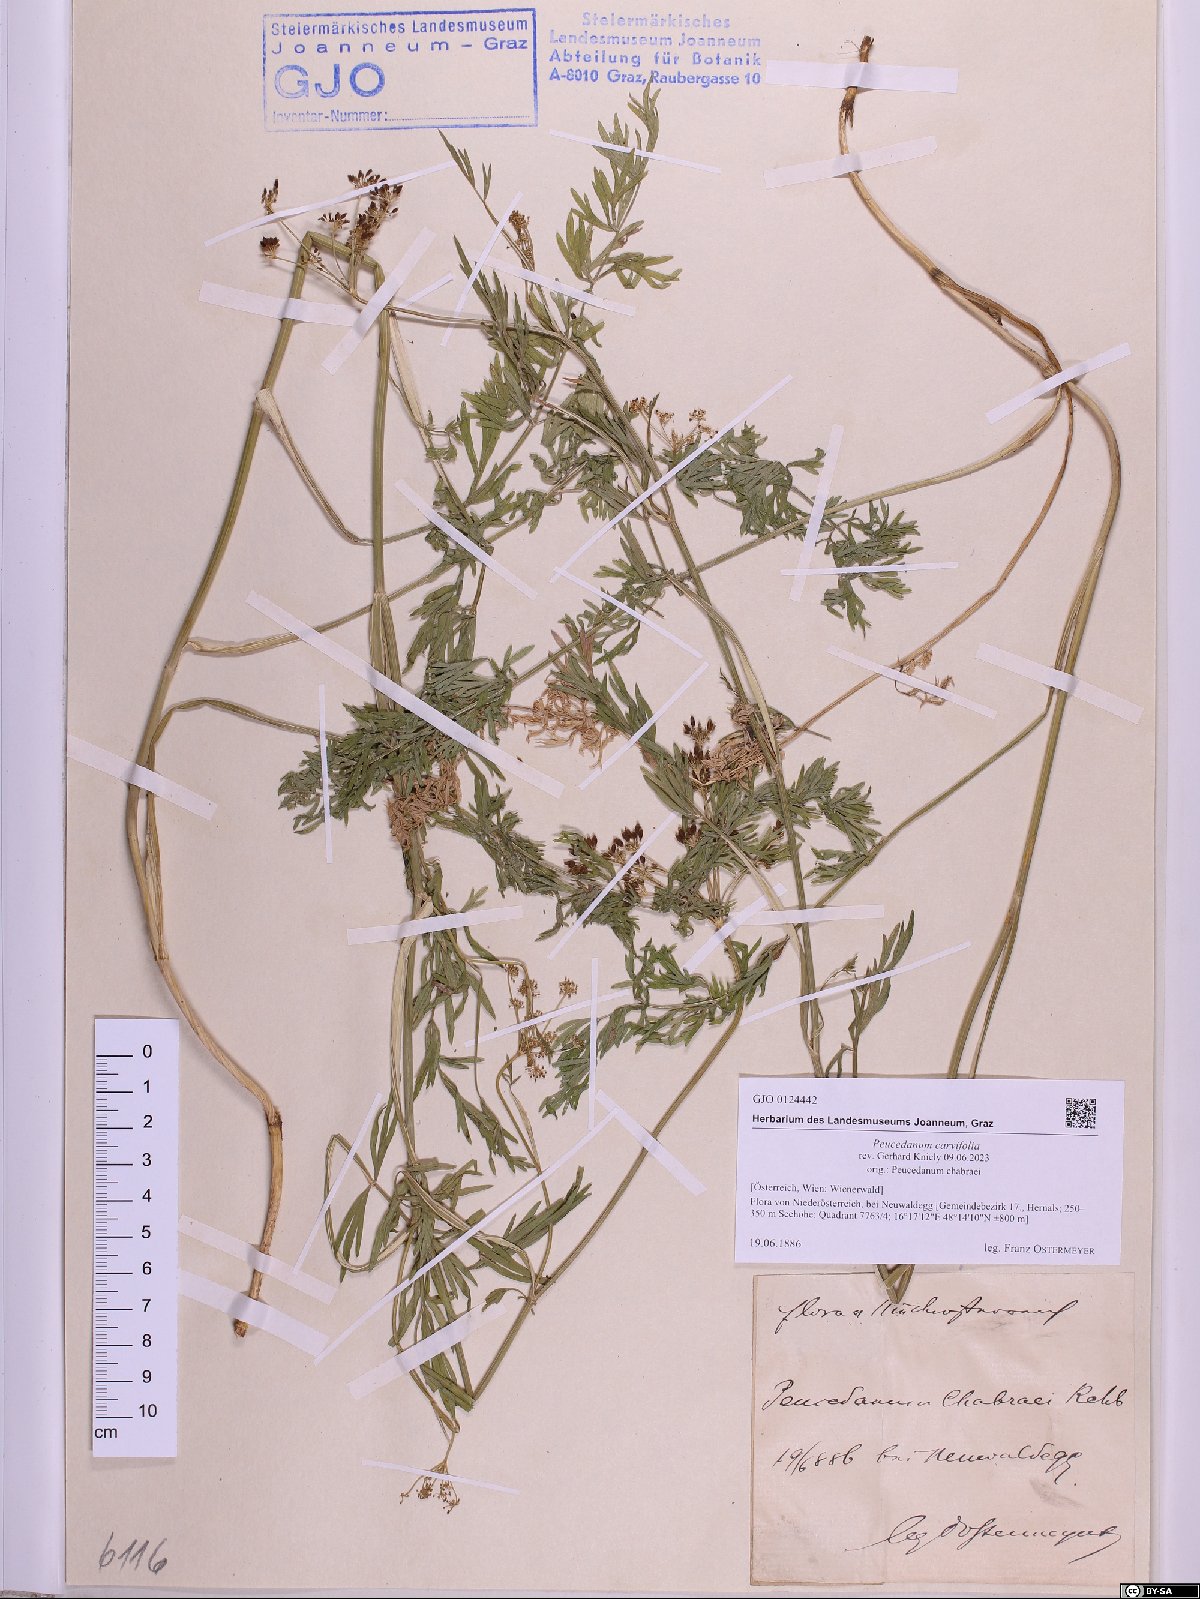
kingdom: Plantae
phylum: Tracheophyta
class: Magnoliopsida
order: Apiales
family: Apiaceae
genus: Dichoropetalum
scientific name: Dichoropetalum carvifolia
